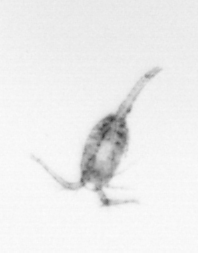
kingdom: Animalia
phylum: Arthropoda
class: Copepoda
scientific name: Copepoda
